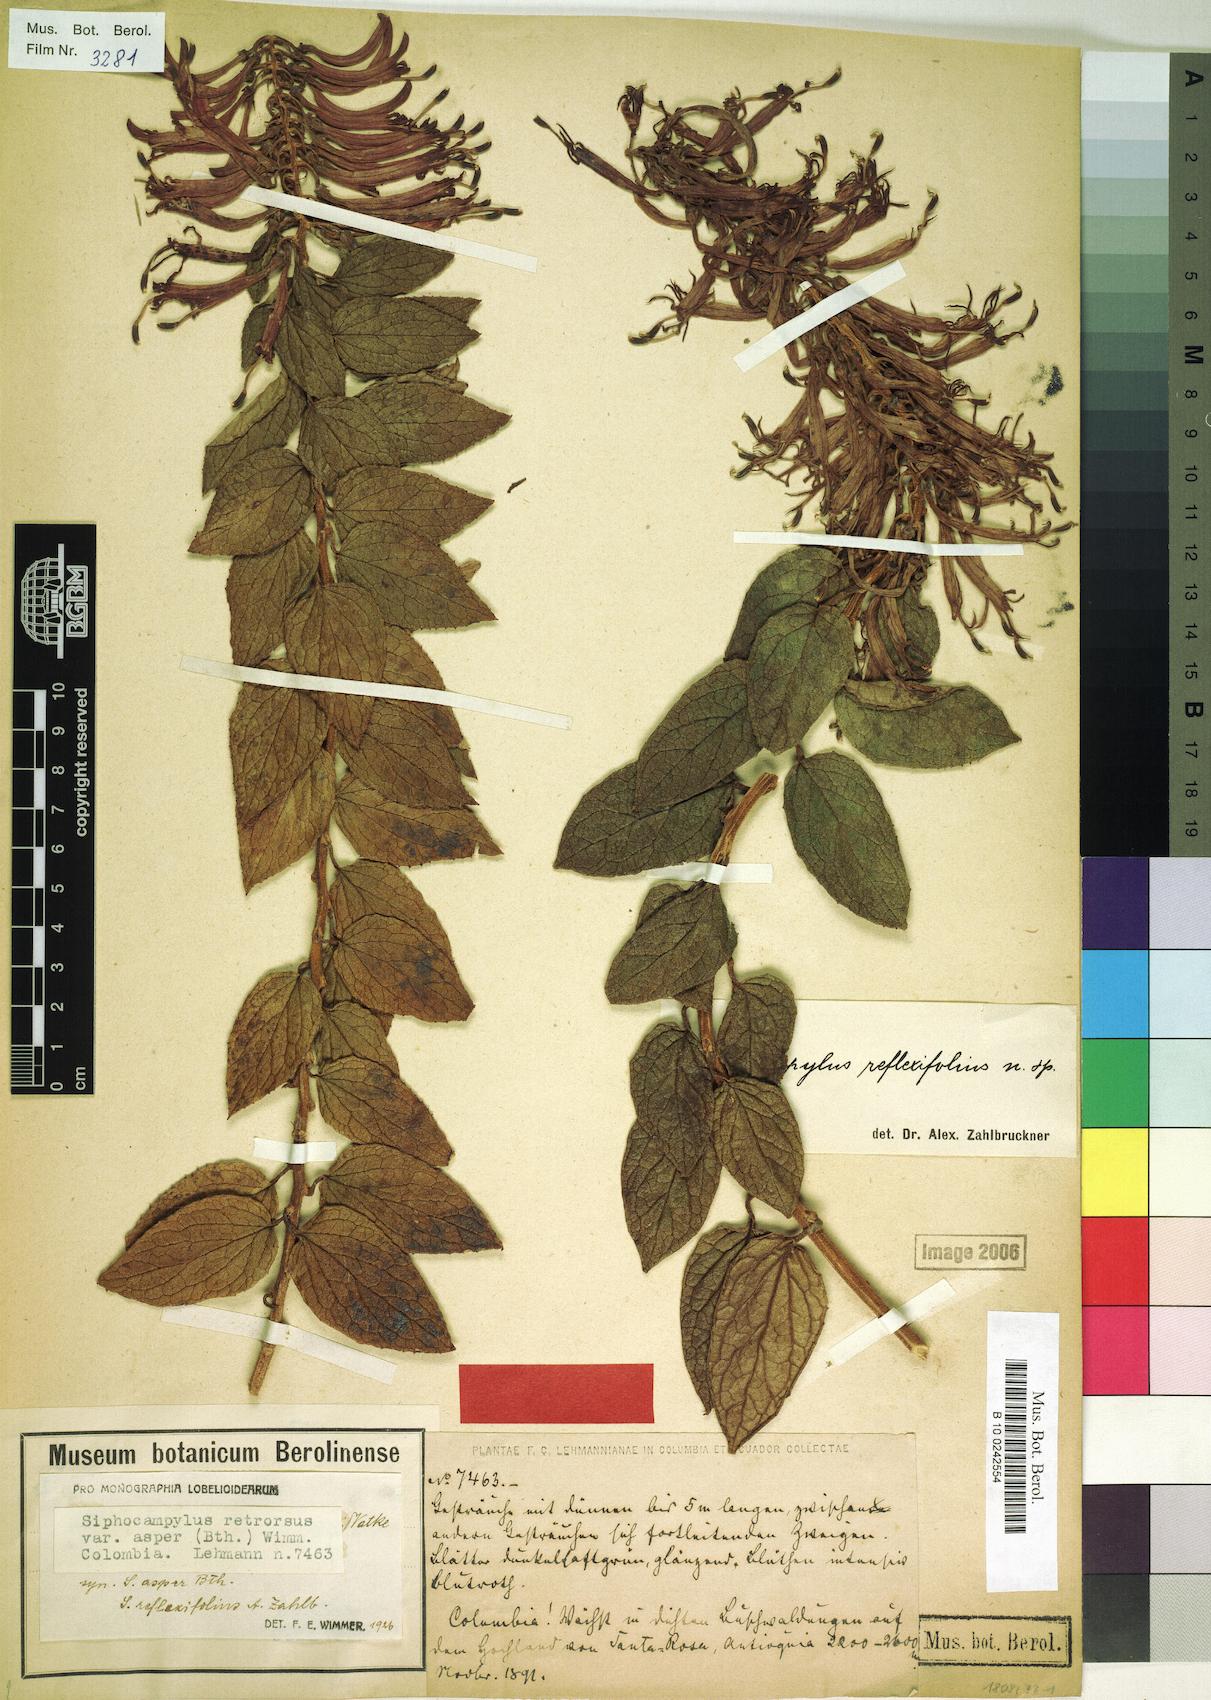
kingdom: Plantae
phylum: Tracheophyta
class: Magnoliopsida
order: Asterales
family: Campanulaceae
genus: Siphocampylus
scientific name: Siphocampylus retrorsus
